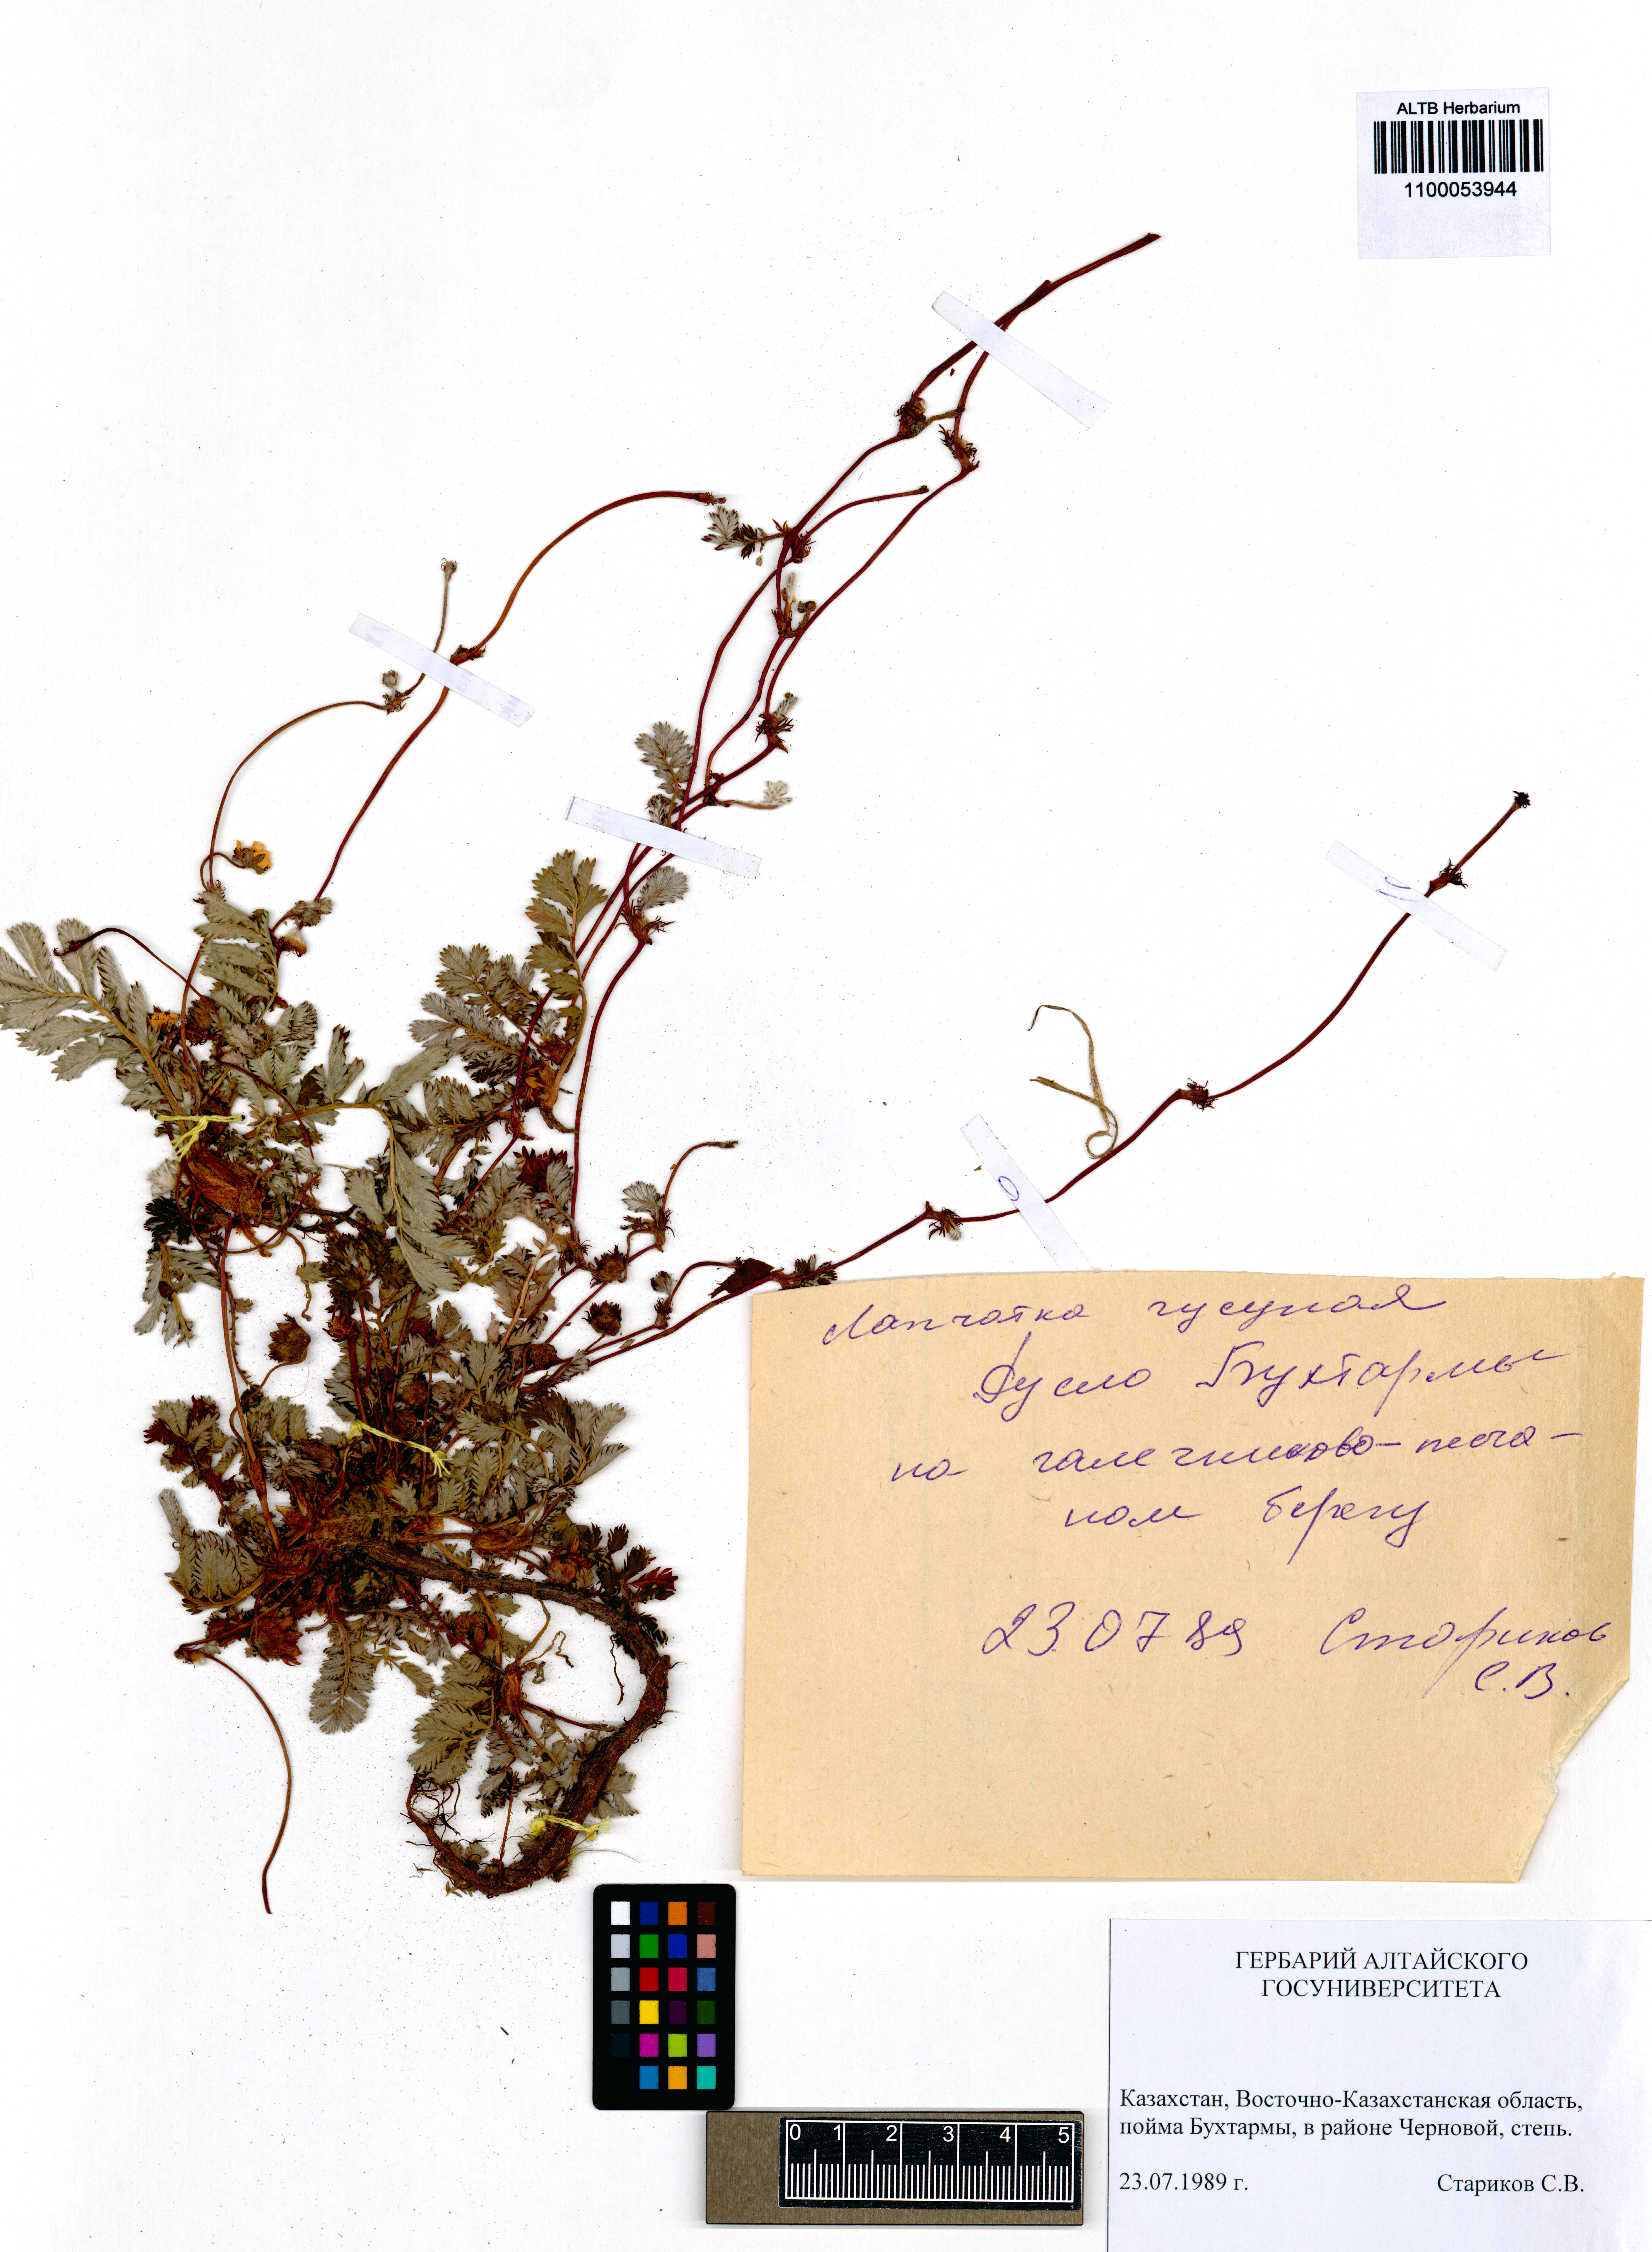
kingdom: Plantae
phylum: Tracheophyta
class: Magnoliopsida
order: Rosales
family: Rosaceae
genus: Argentina
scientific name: Argentina anserina
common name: Common silverweed
